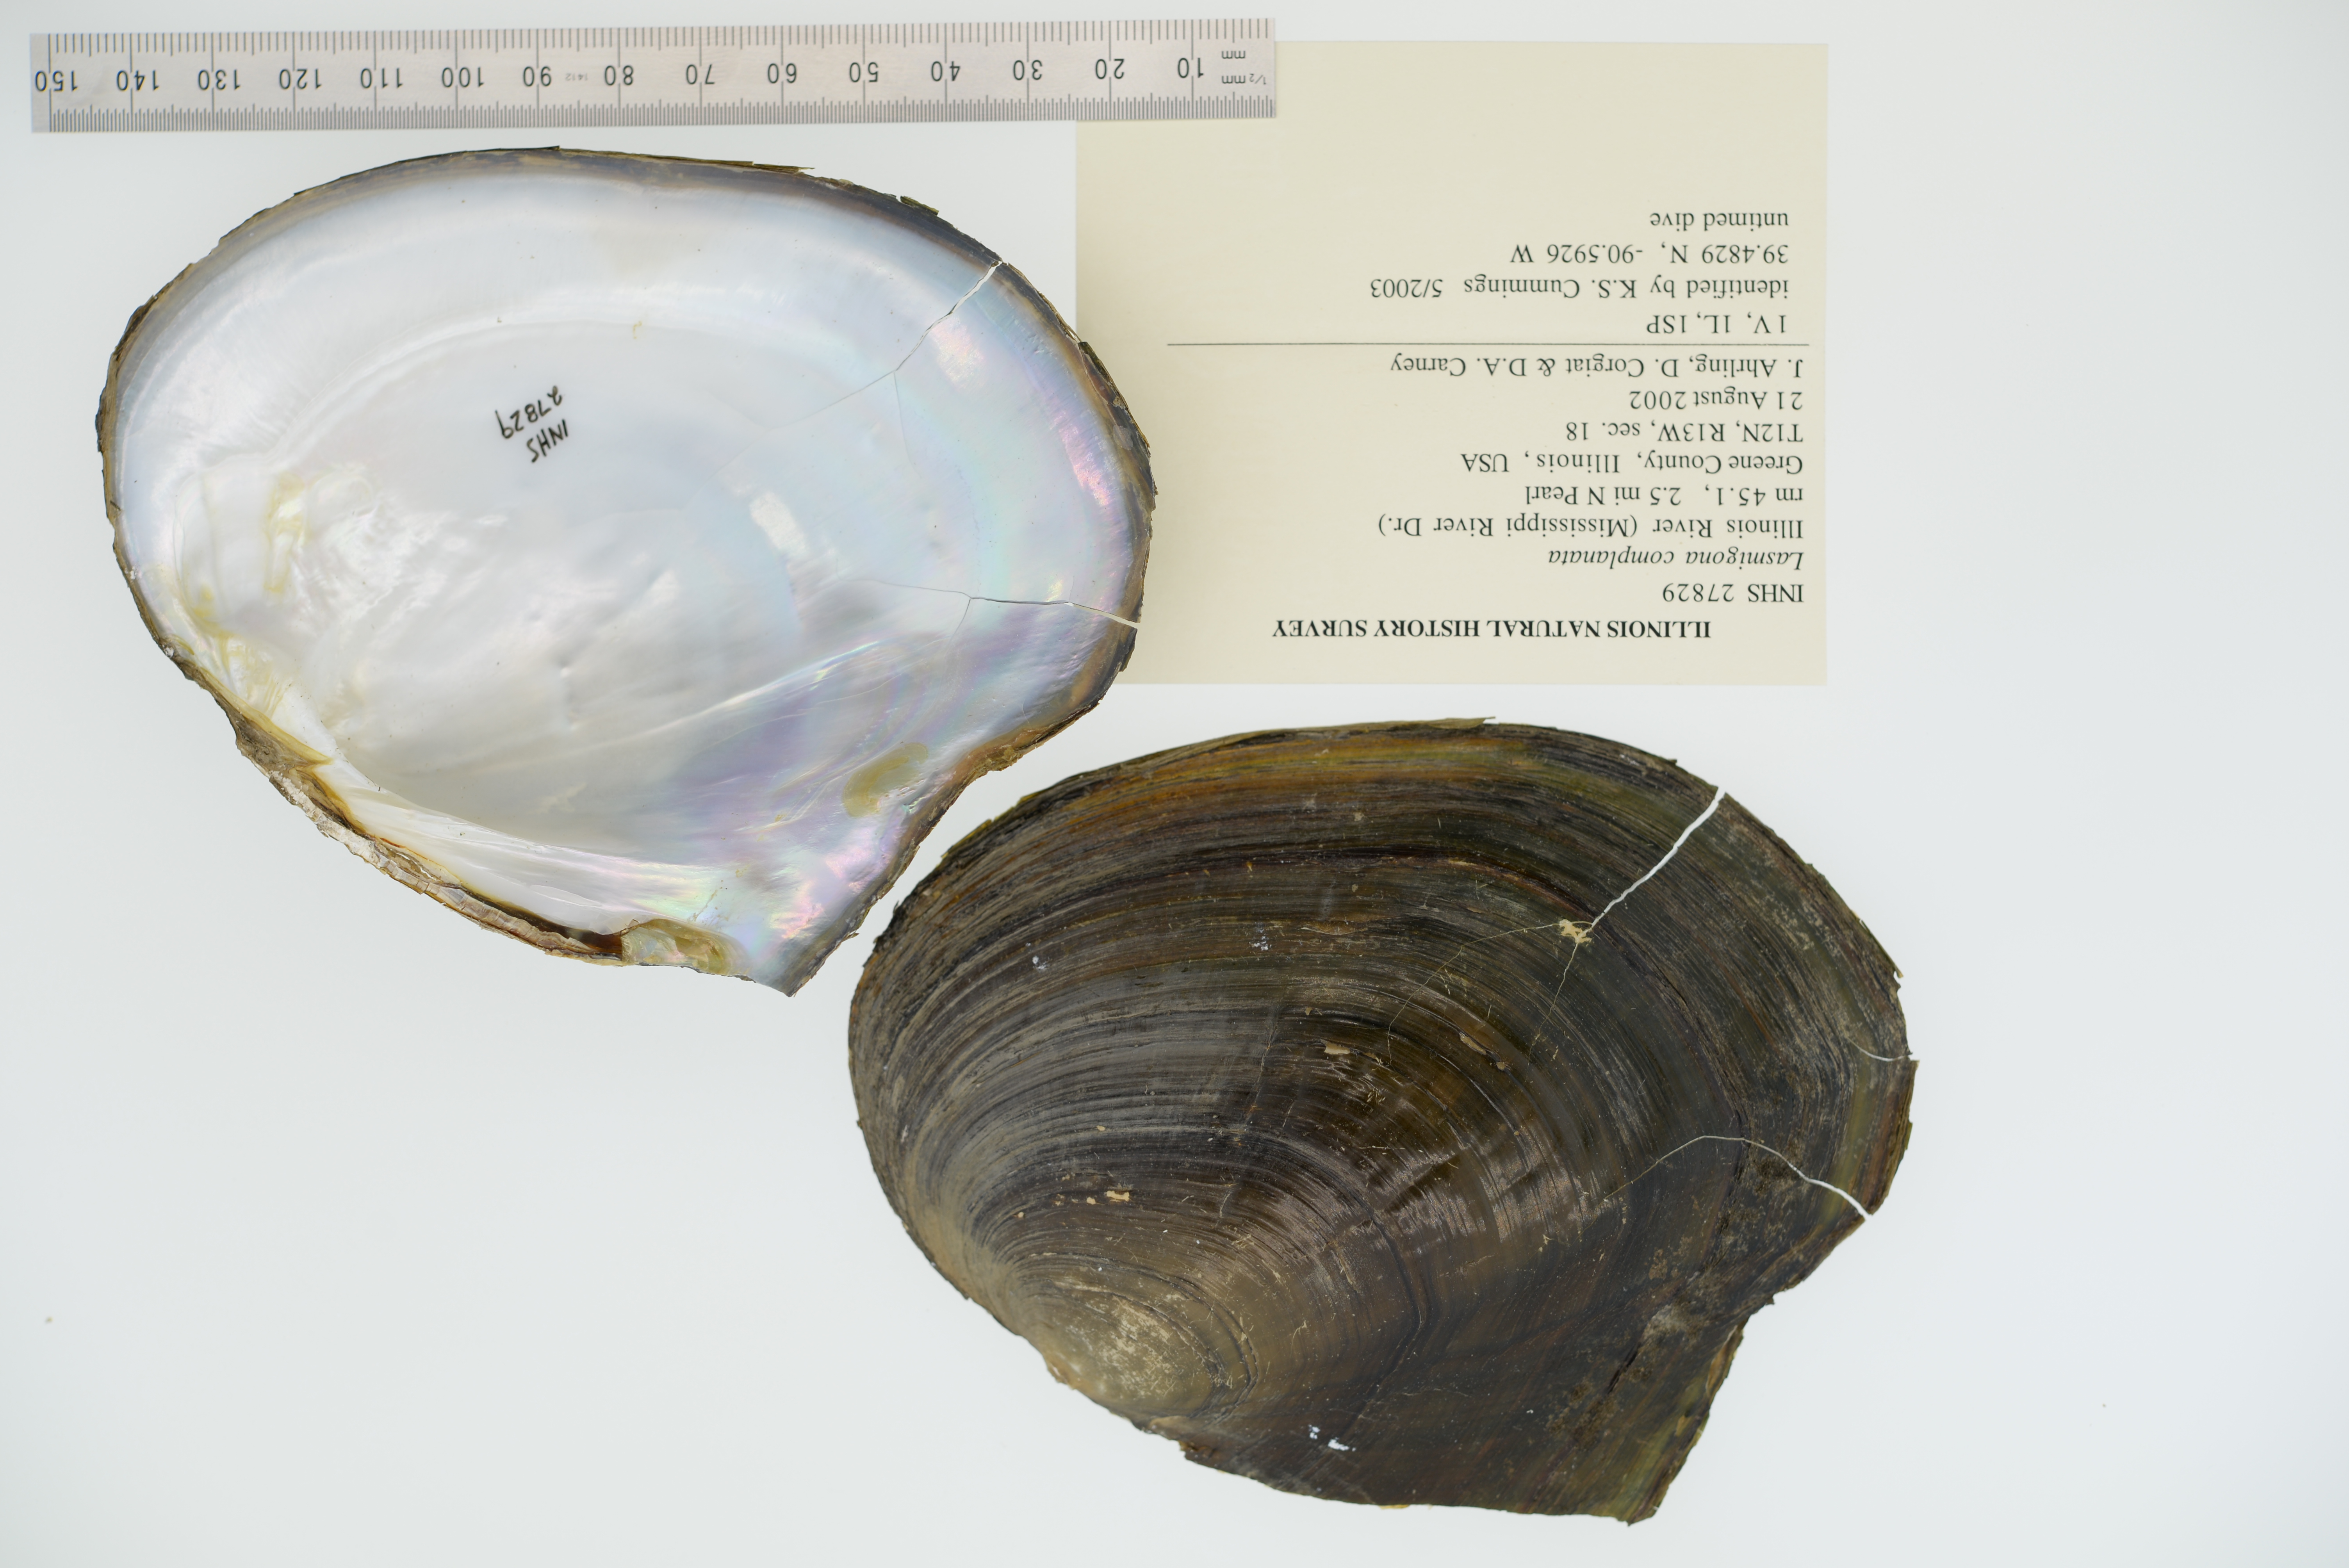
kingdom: Animalia
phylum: Mollusca
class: Bivalvia
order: Unionida
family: Unionidae
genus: Lasmigona
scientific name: Lasmigona complanata
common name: White heelsplitter
